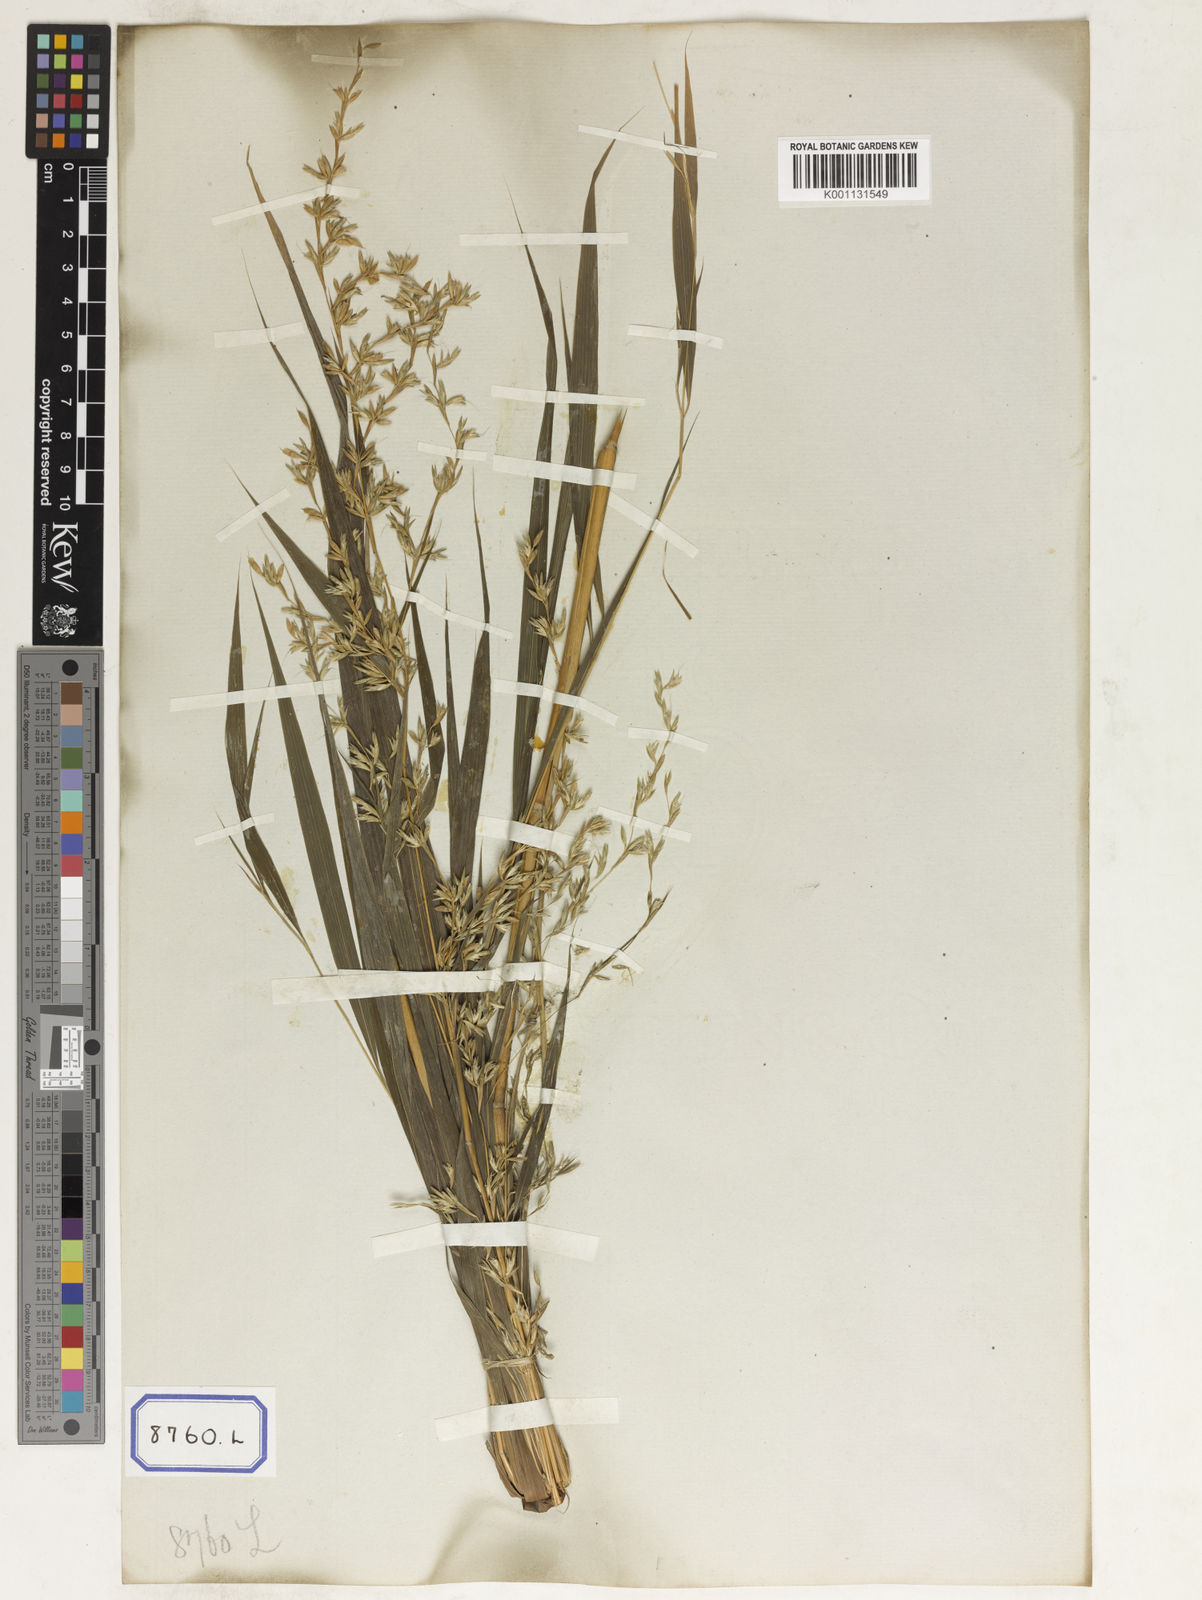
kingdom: Plantae
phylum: Tracheophyta
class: Liliopsida
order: Poales
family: Poaceae
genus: Apluda
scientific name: Apluda
